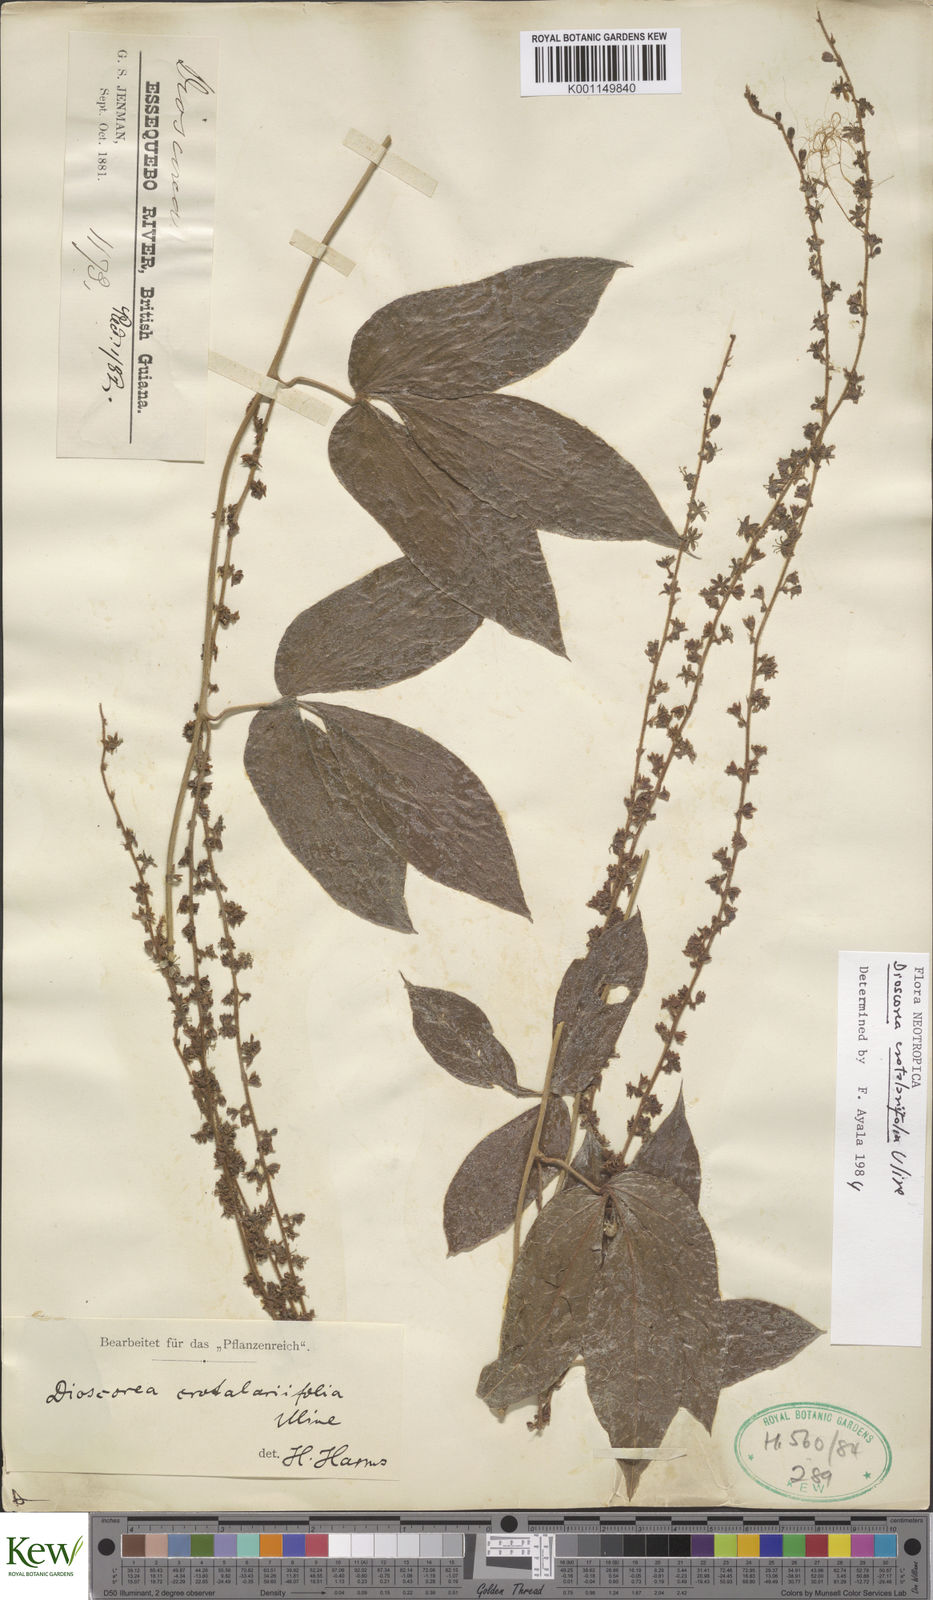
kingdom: Plantae
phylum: Tracheophyta
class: Liliopsida
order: Dioscoreales
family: Dioscoreaceae
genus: Dioscorea
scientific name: Dioscorea crotalariifolia
